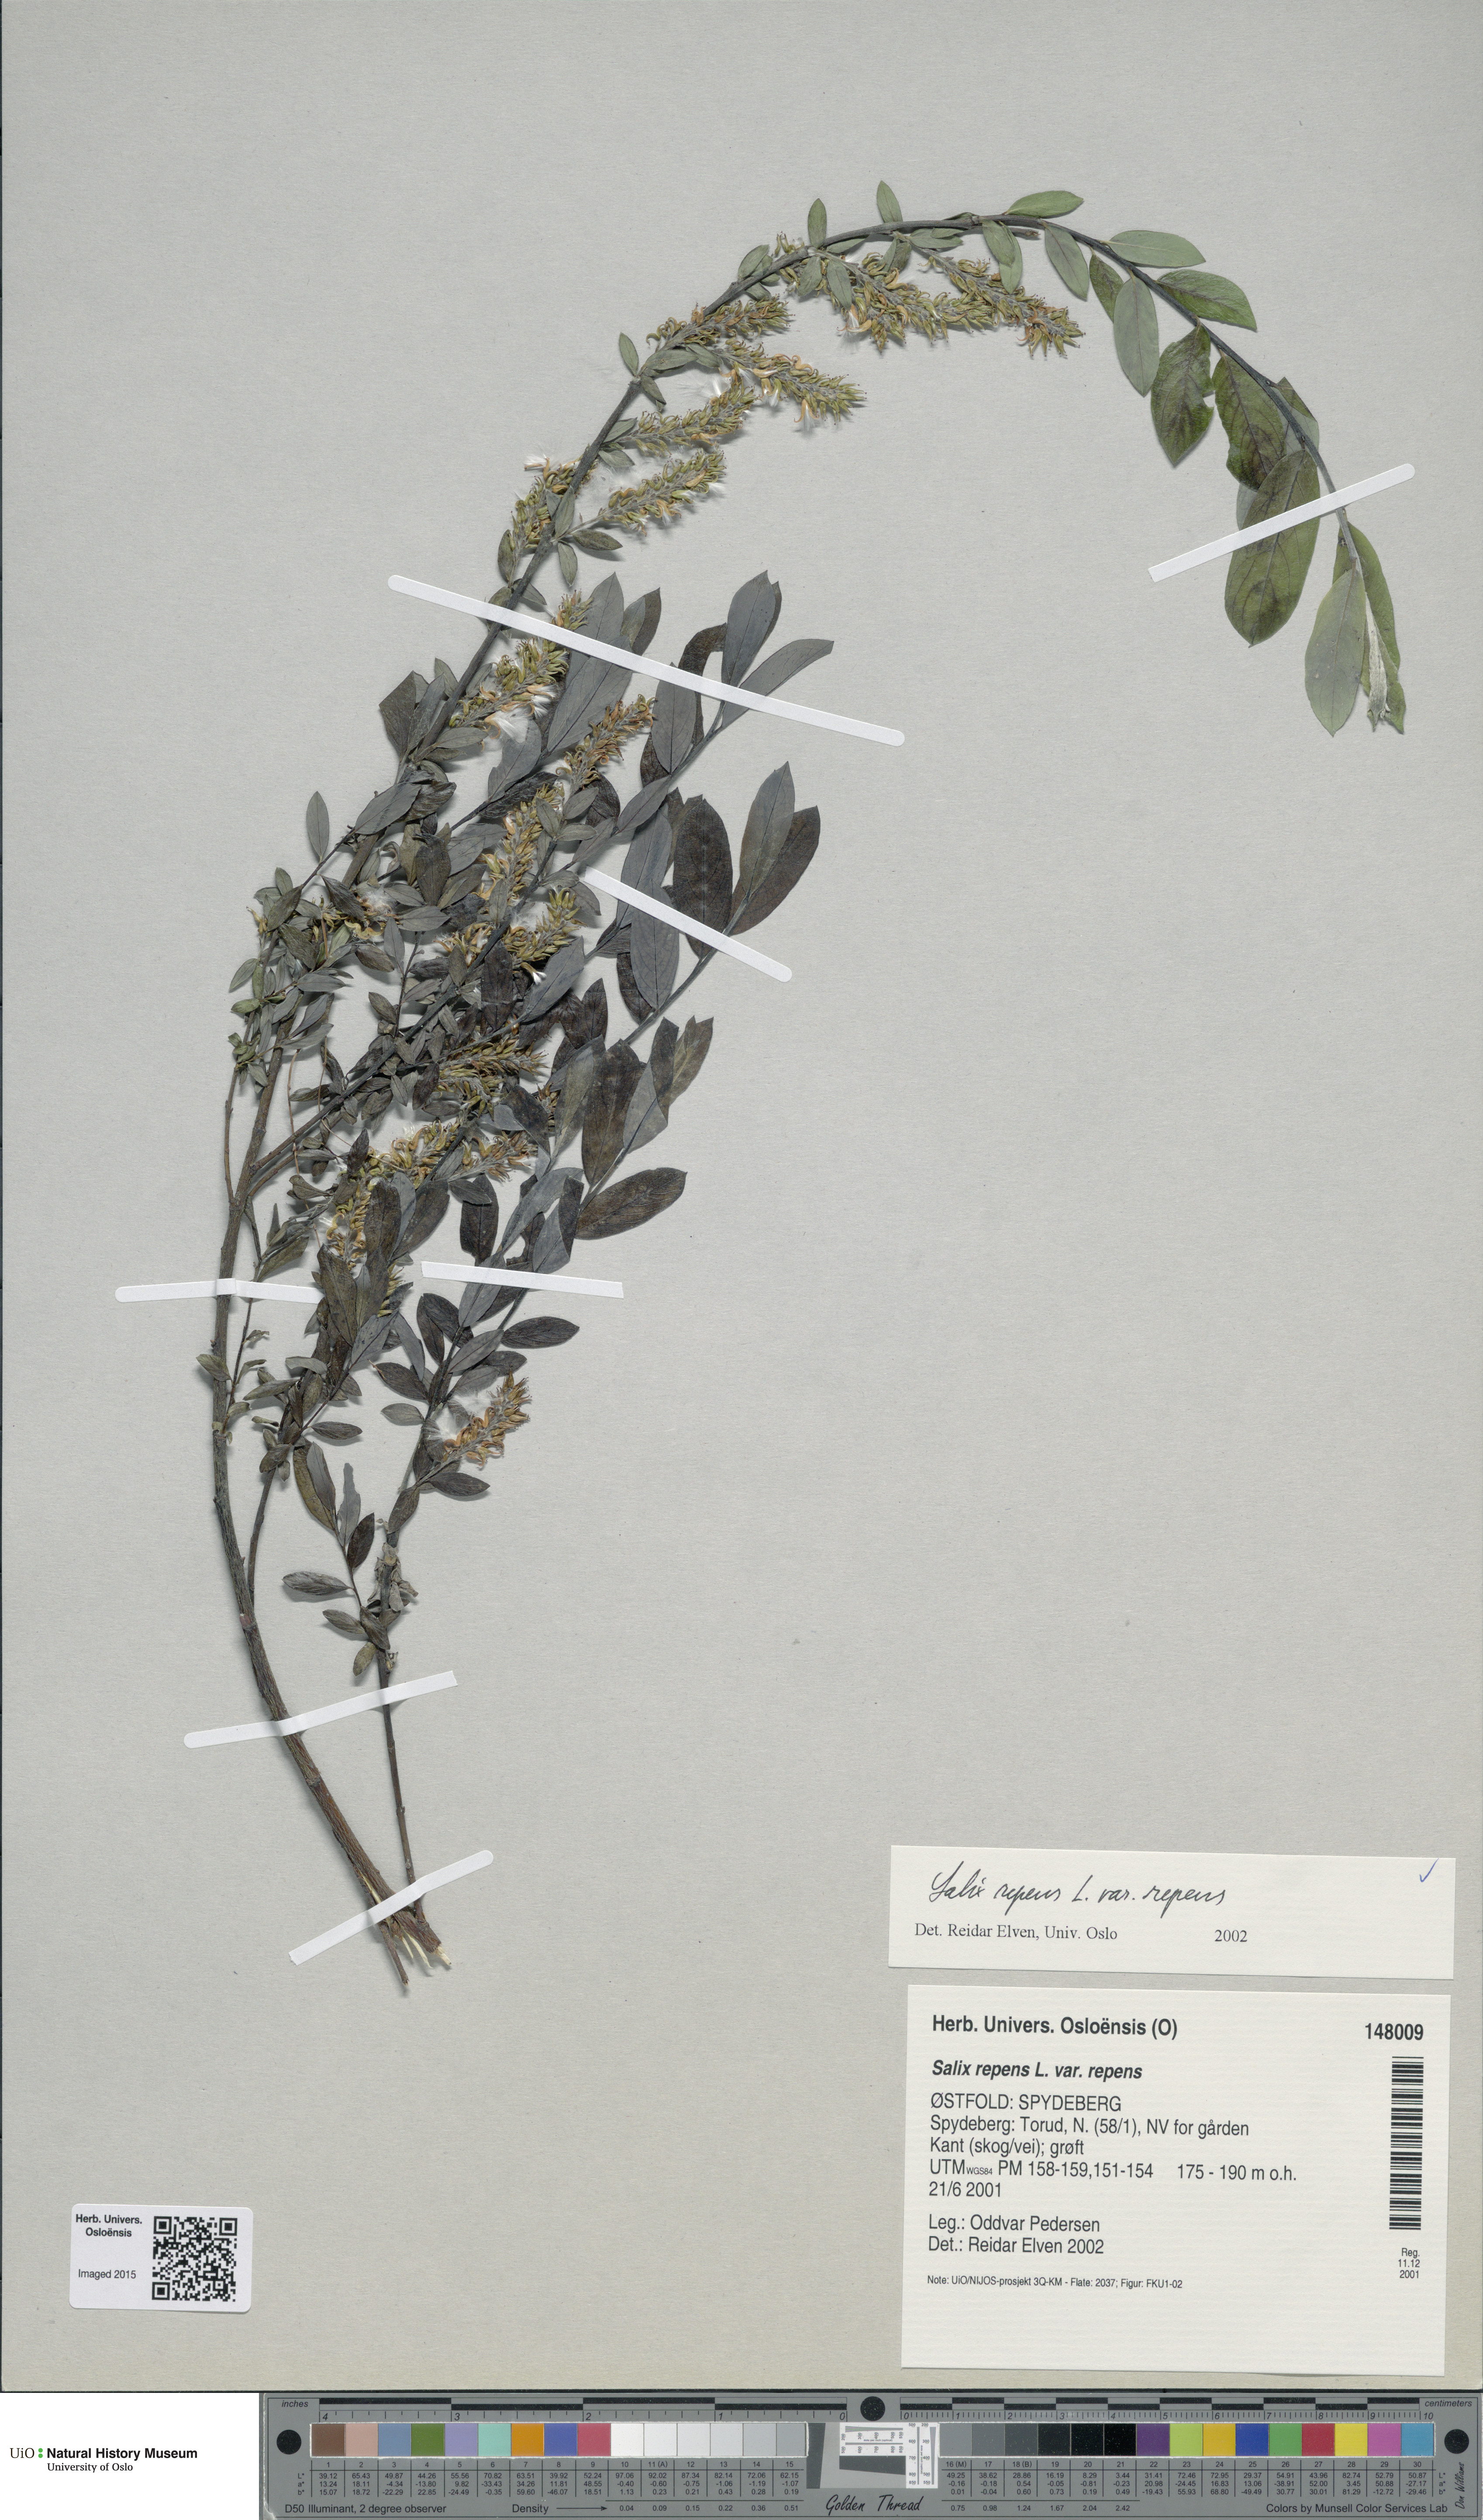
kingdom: Plantae
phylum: Tracheophyta
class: Magnoliopsida
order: Malpighiales
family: Salicaceae
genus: Salix
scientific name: Salix repens
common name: Creeping willow
